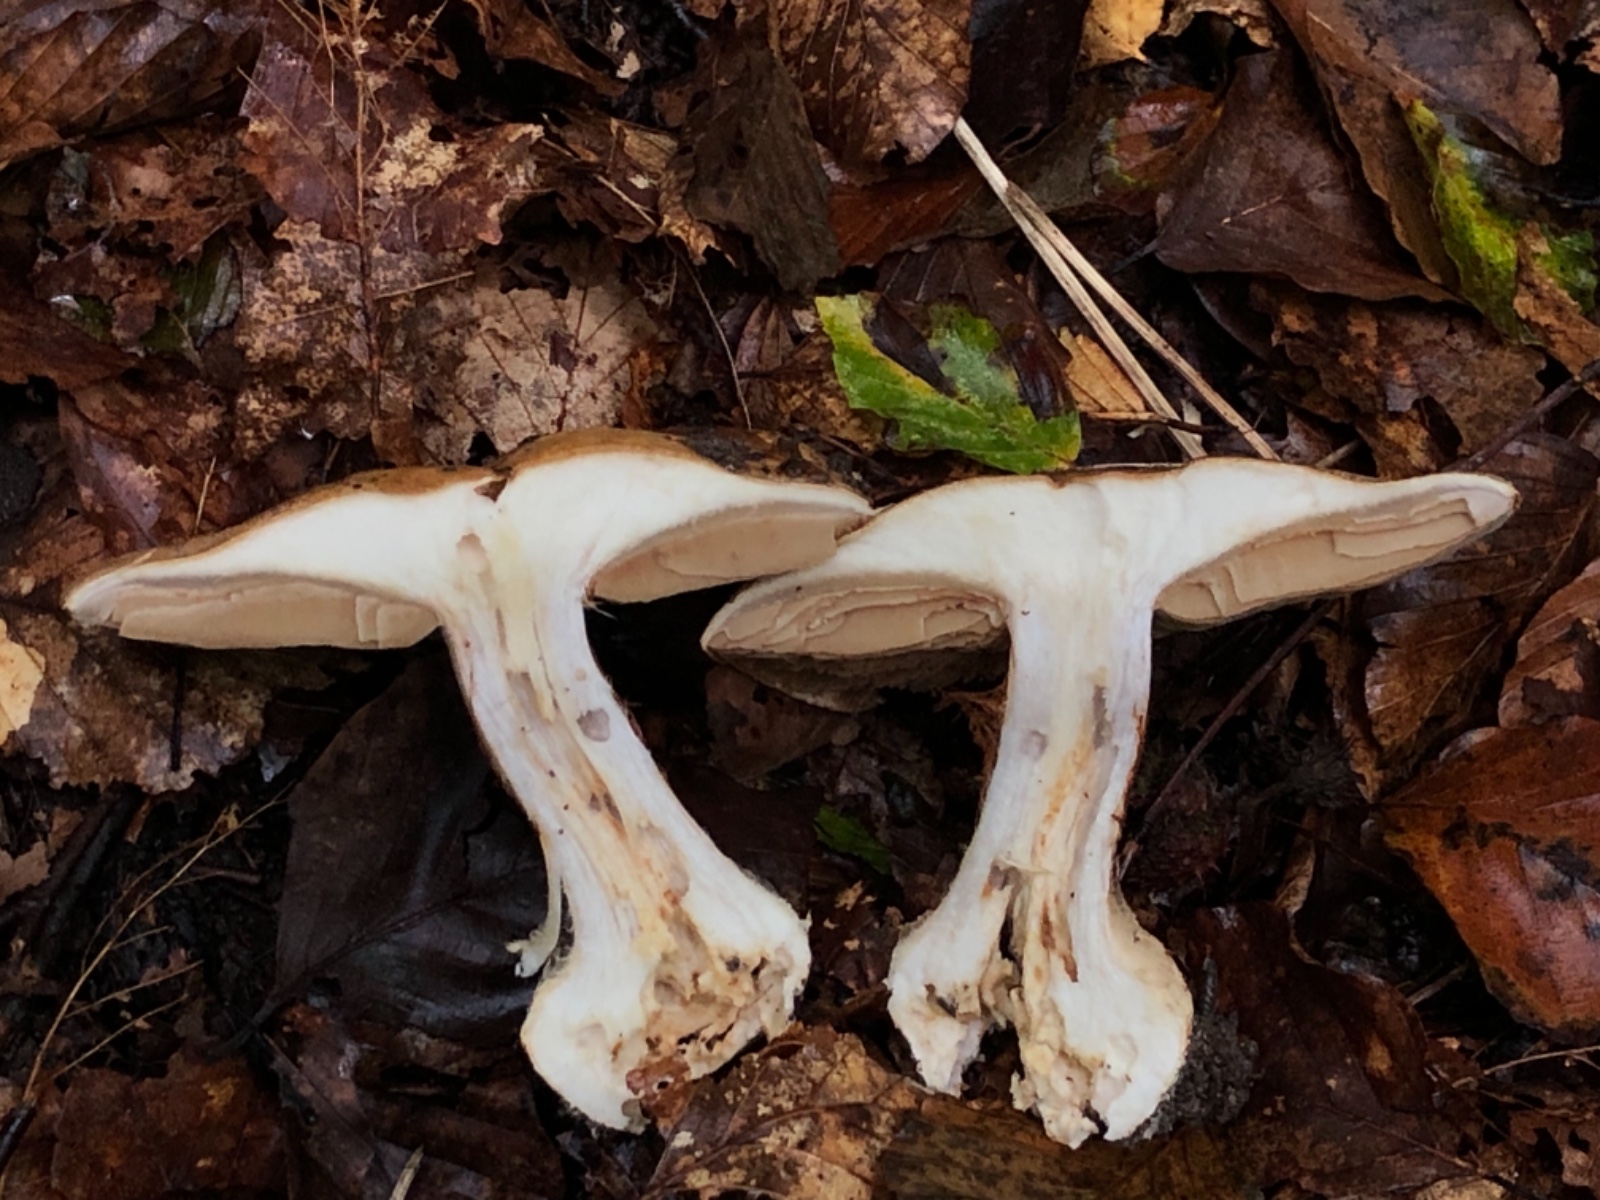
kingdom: Fungi
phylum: Basidiomycota
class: Agaricomycetes
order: Agaricales
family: Cortinariaceae
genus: Cortinarius
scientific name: Cortinarius anserinus
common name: bøge-slørhat
